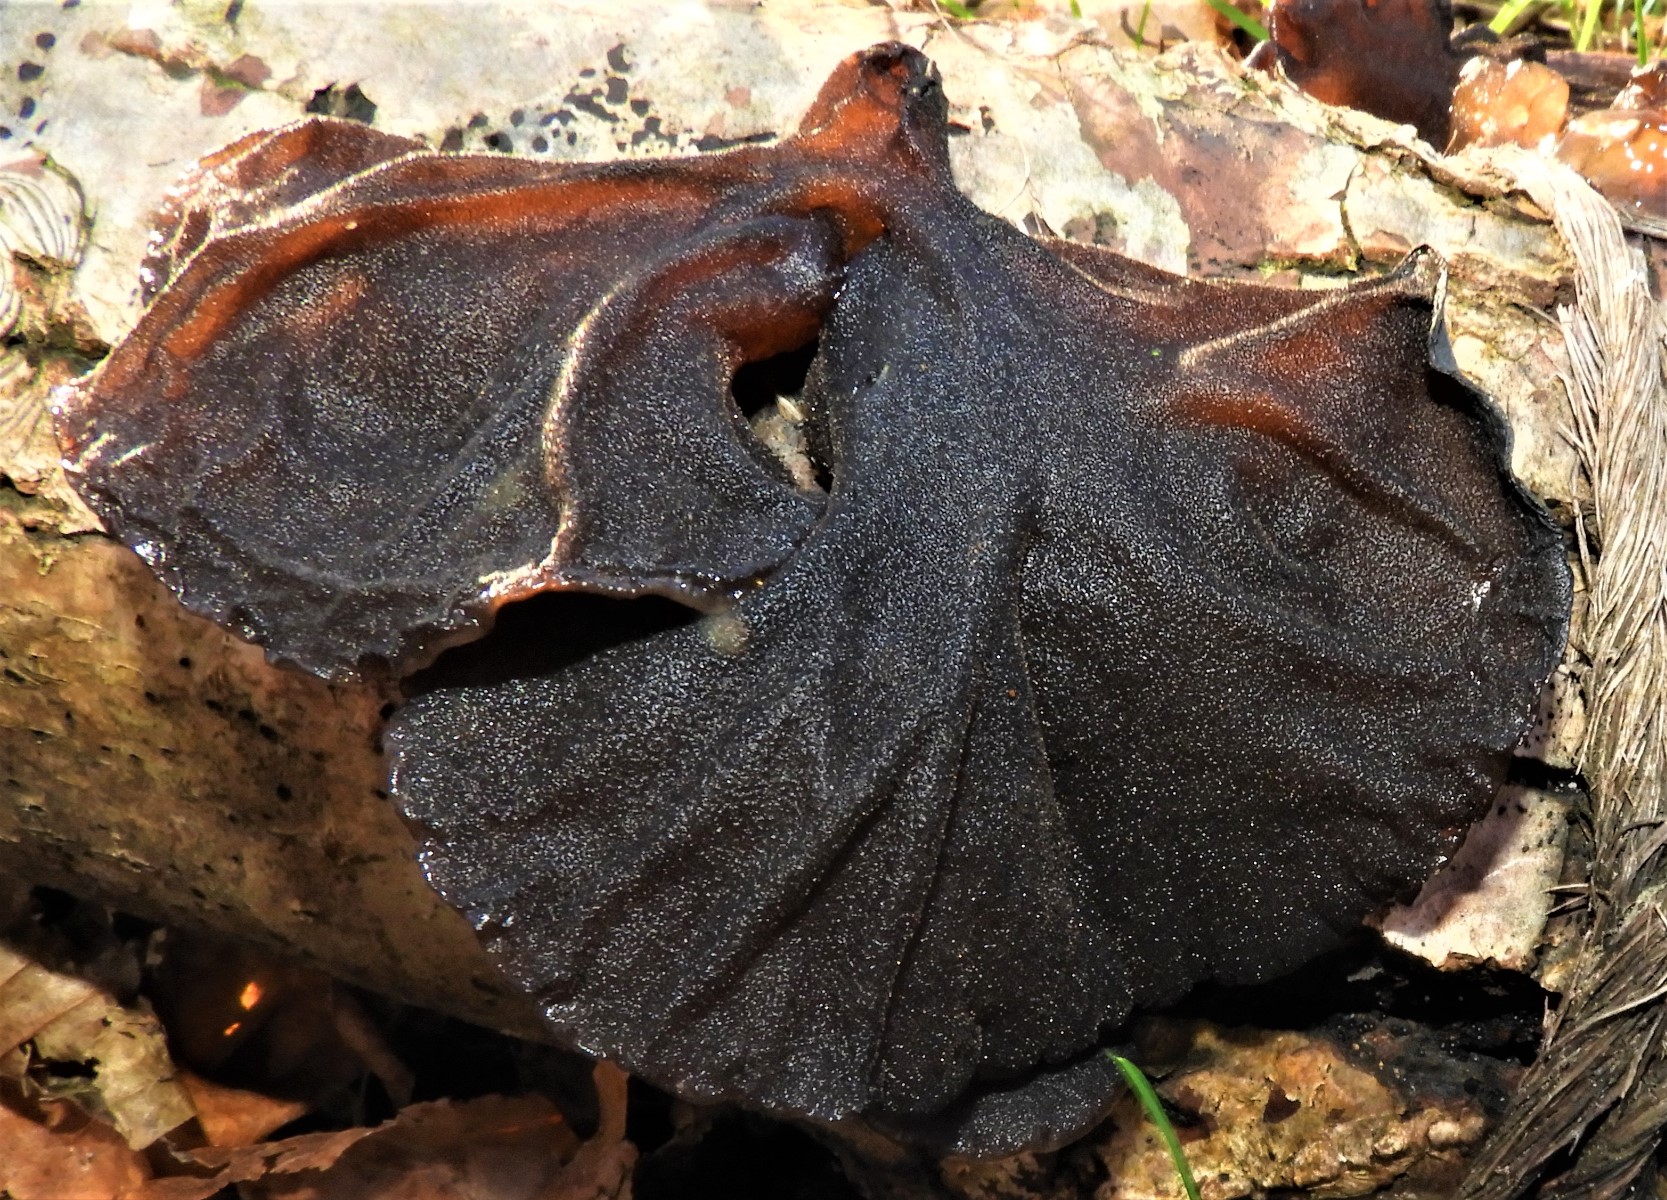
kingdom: Fungi
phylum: Basidiomycota
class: Agaricomycetes
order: Auriculariales
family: Auriculariaceae
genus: Exidia
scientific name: Exidia glandulosa
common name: ege-bævretop
